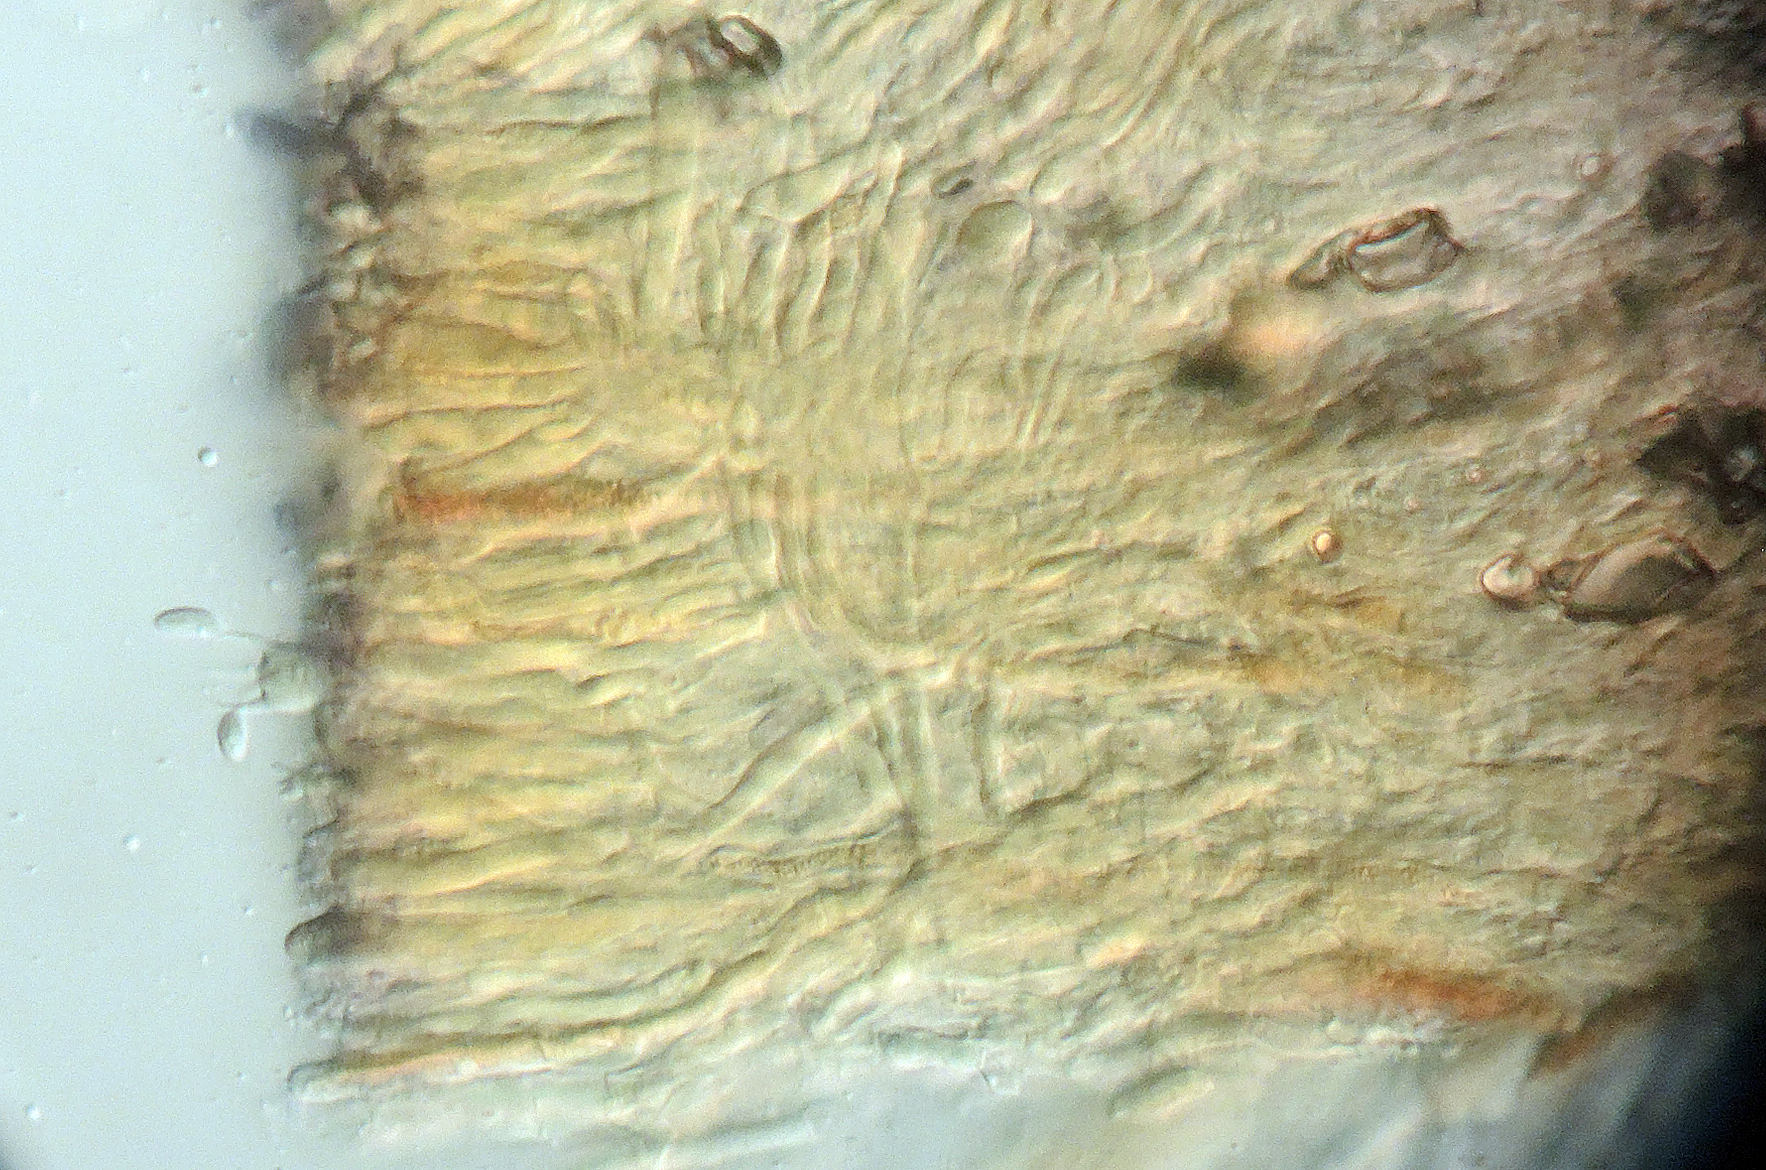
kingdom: Fungi
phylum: Basidiomycota
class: Agaricomycetes
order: Russulales
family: Stereaceae
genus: Stereum
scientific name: Stereum rugosum
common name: rynket lædersvamp
